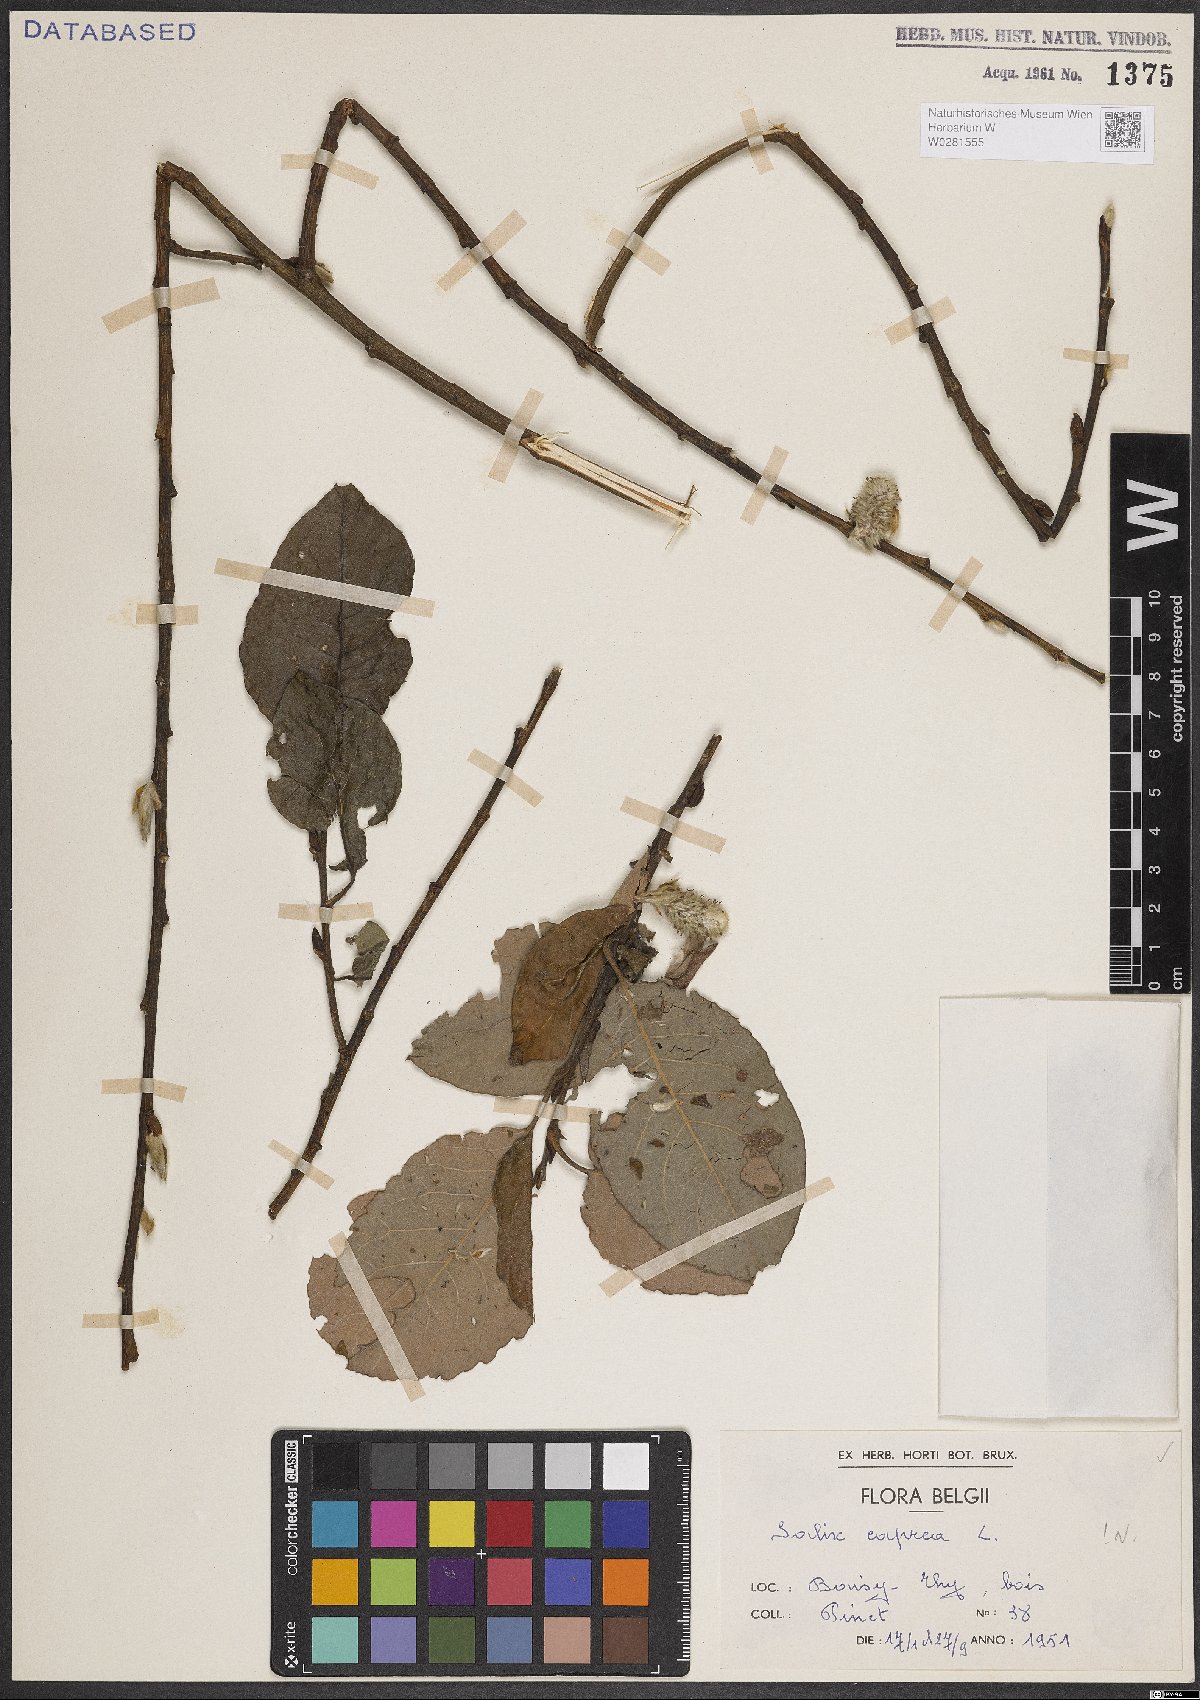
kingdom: Plantae
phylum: Tracheophyta
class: Magnoliopsida
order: Malpighiales
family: Salicaceae
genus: Salix
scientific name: Salix caprea
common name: Goat willow
